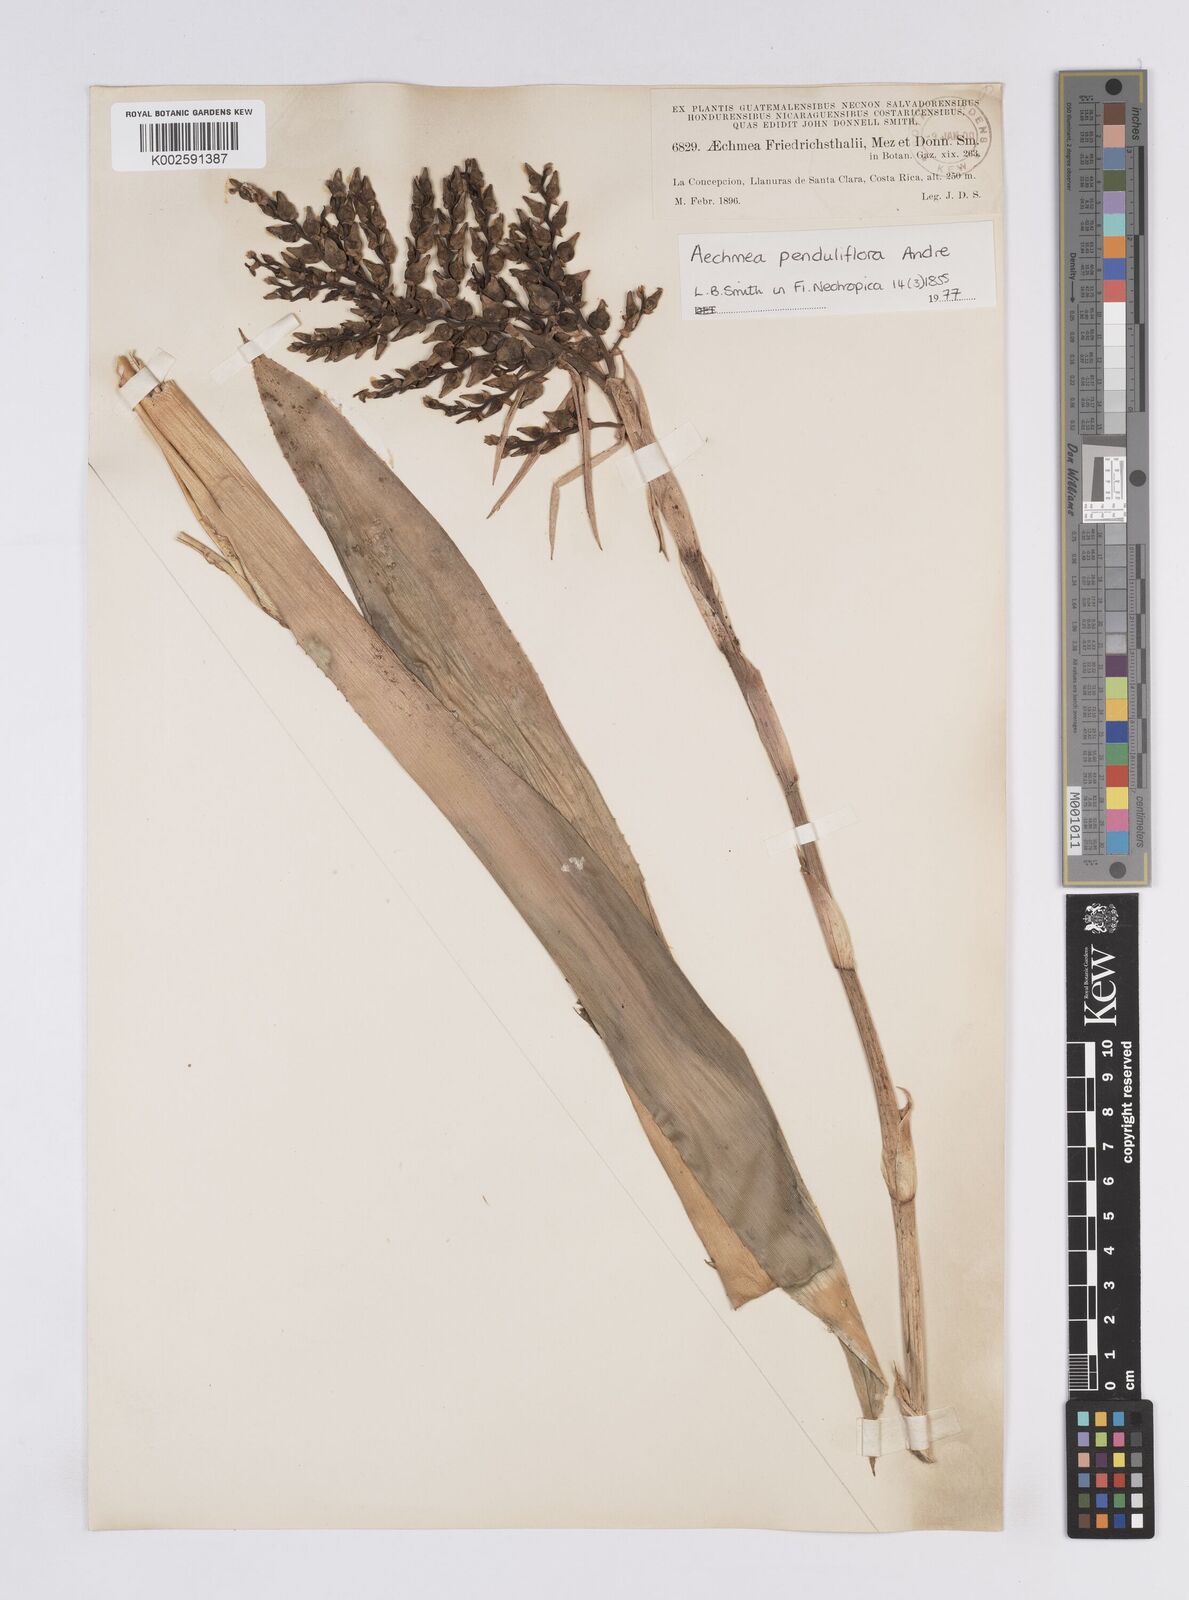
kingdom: Plantae
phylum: Tracheophyta
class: Liliopsida
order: Poales
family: Bromeliaceae
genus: Aechmea
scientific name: Aechmea penduliflora
